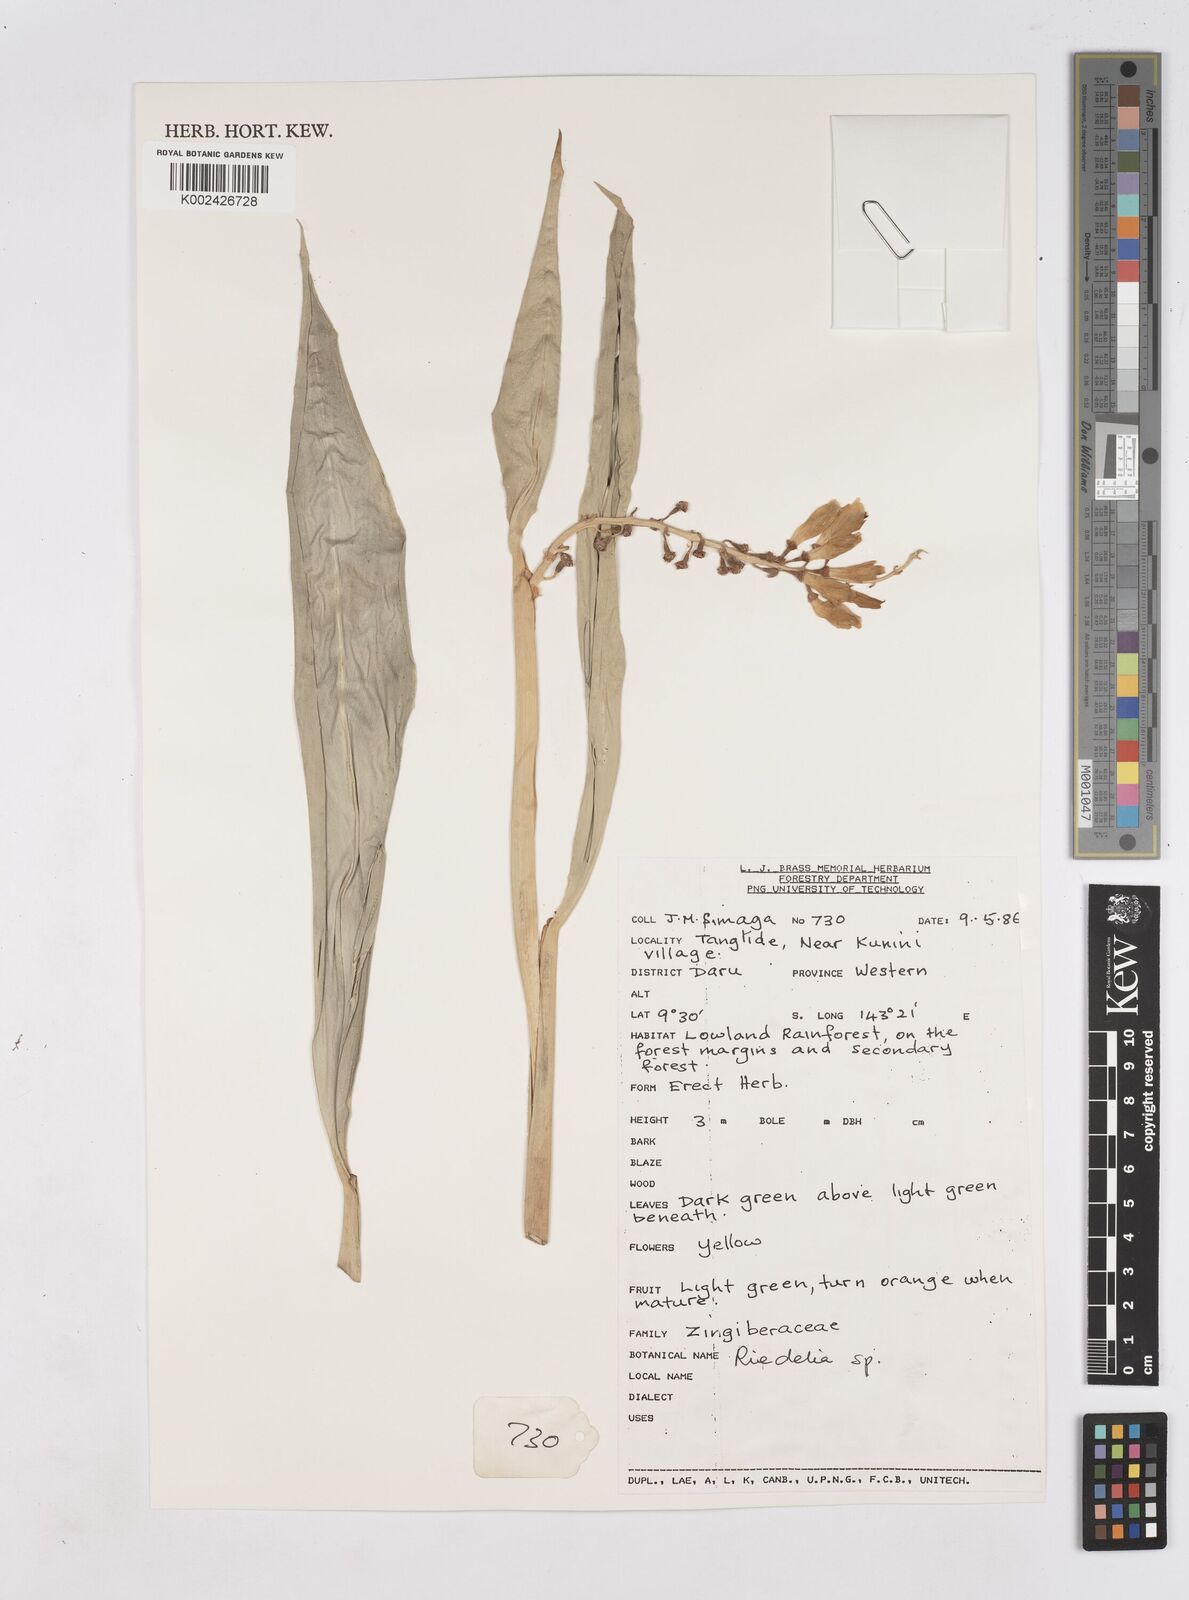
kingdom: Plantae
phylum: Tracheophyta
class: Liliopsida
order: Zingiberales
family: Zingiberaceae
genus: Riedelia
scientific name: Riedelia
